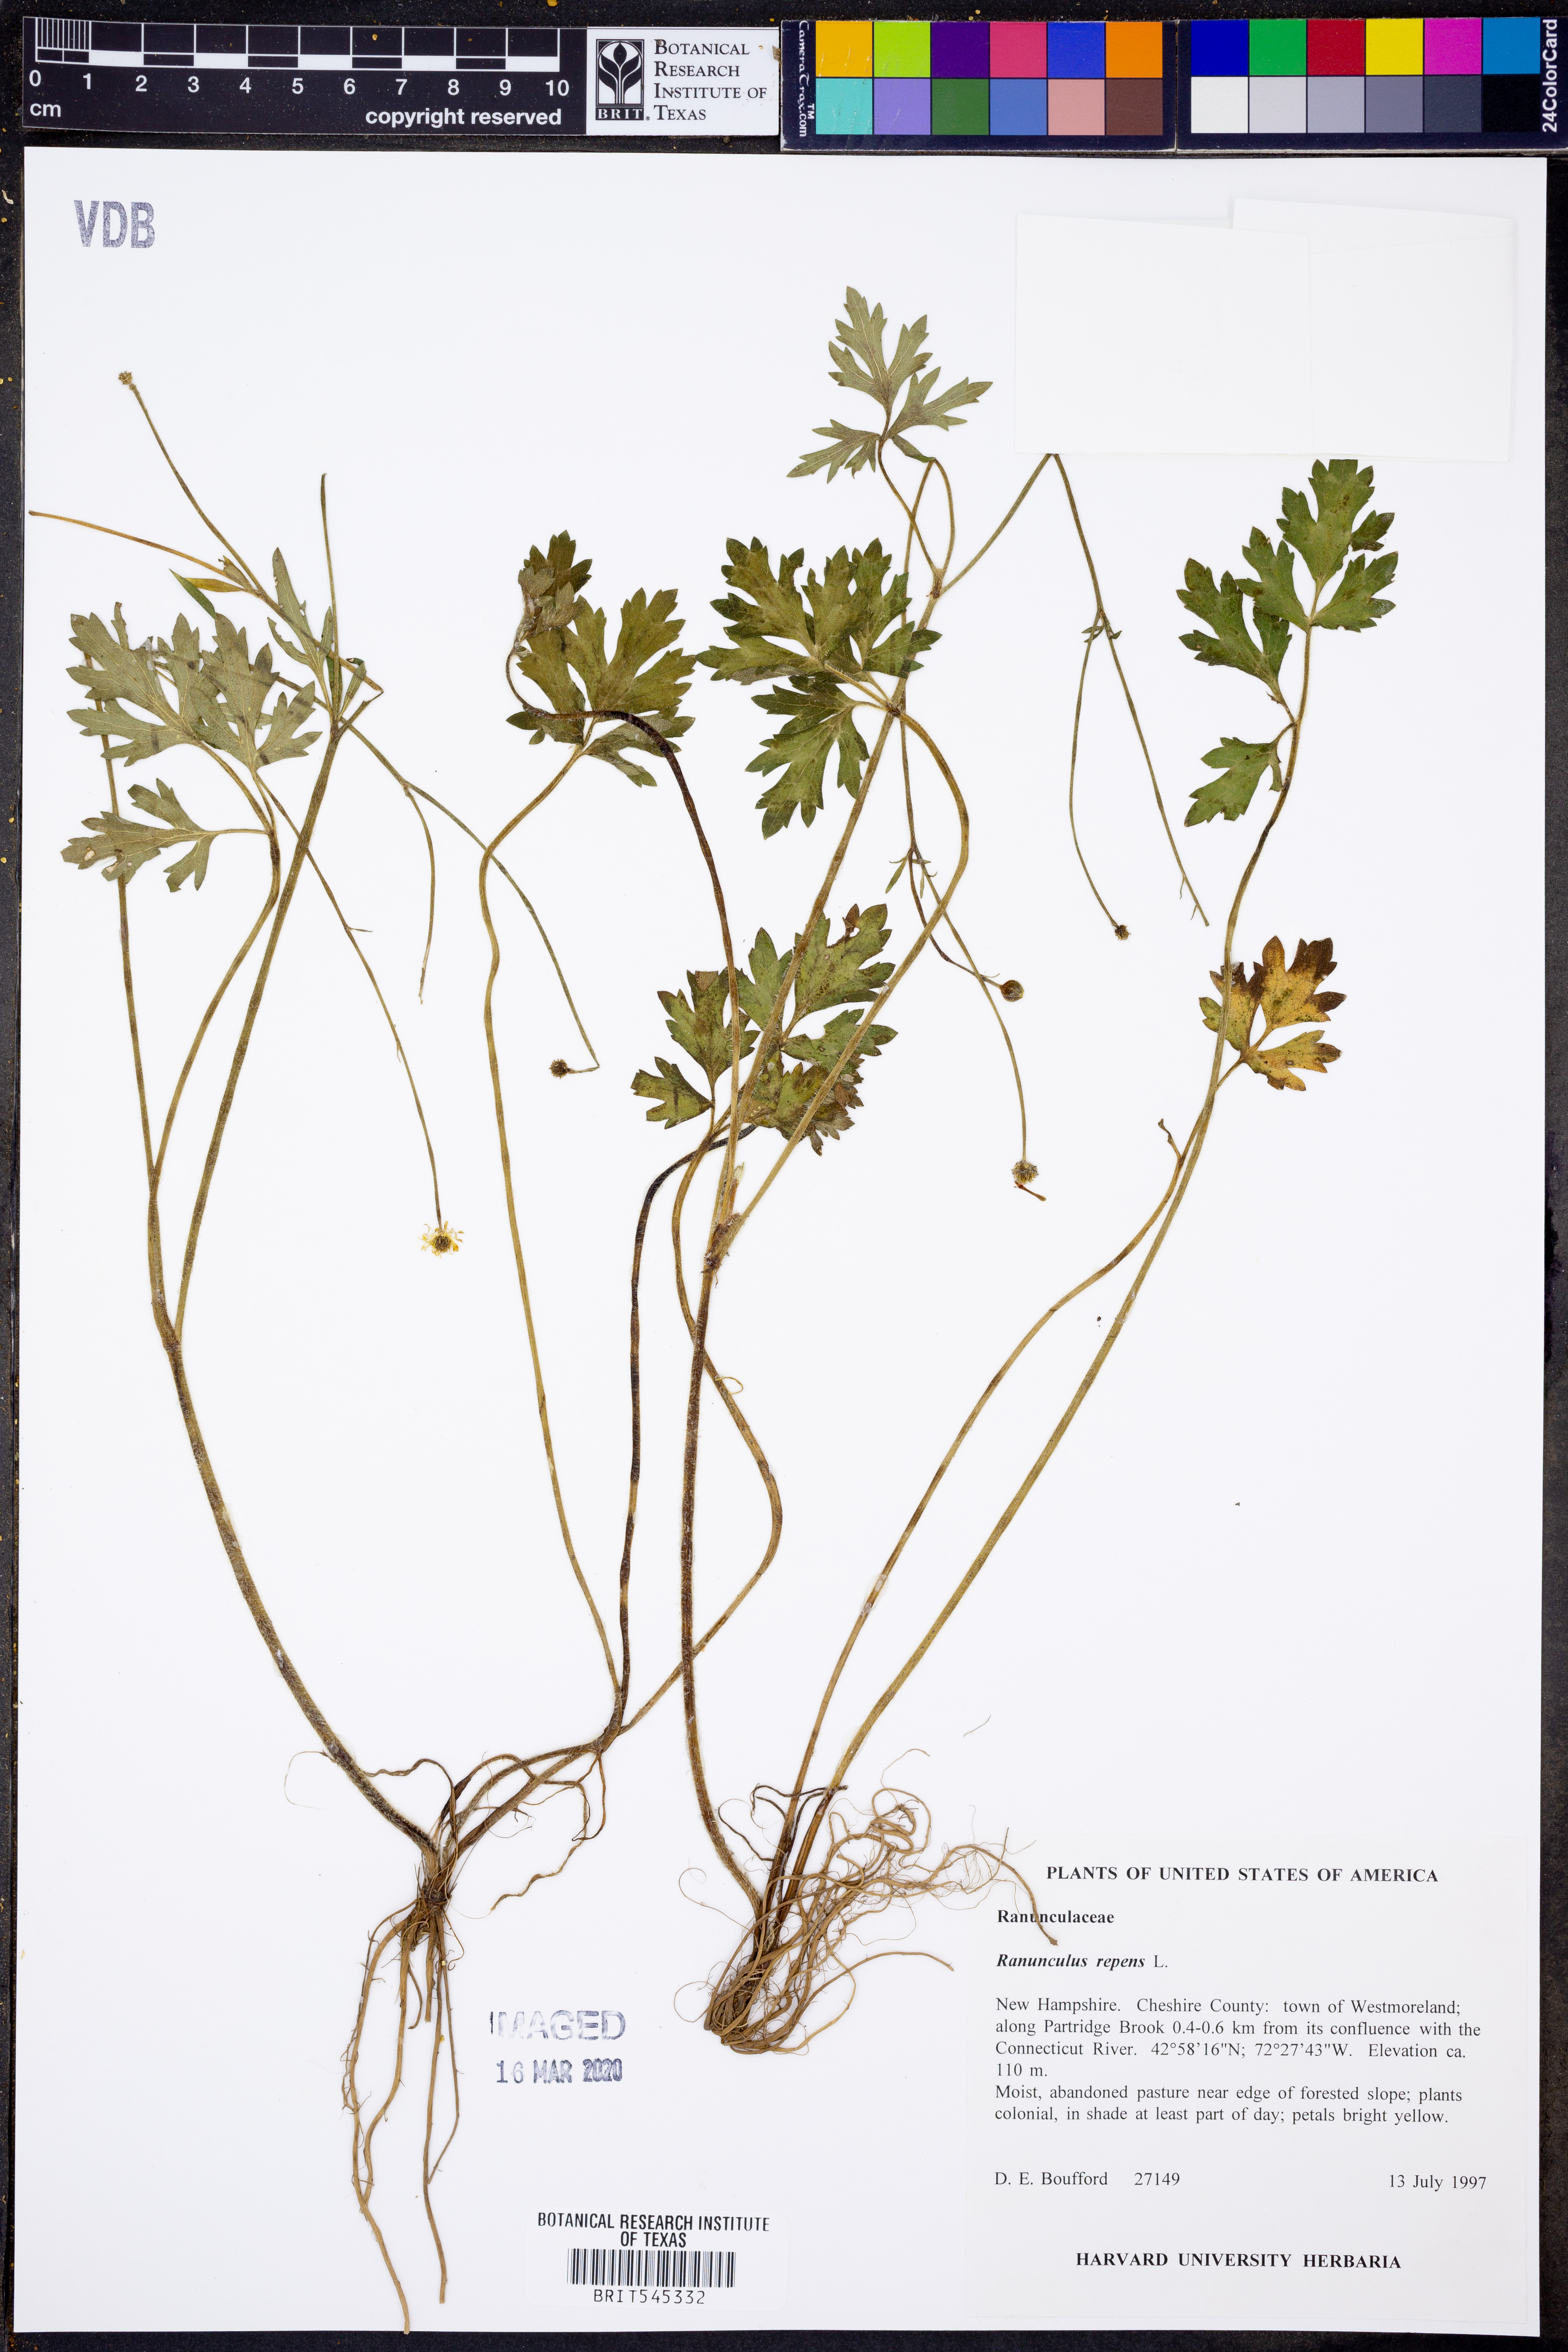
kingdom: Plantae
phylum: Tracheophyta
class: Magnoliopsida
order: Ranunculales
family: Ranunculaceae
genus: Ranunculus
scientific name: Ranunculus repens
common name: Creeping buttercup
